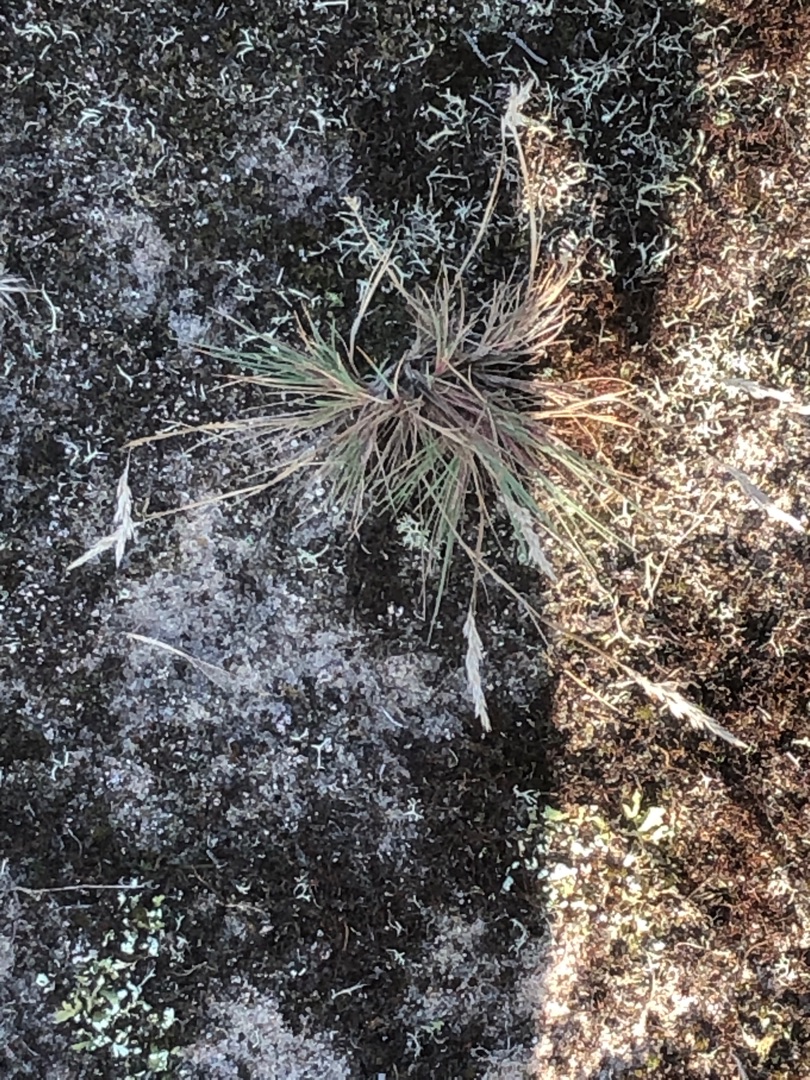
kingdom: Plantae
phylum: Tracheophyta
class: Liliopsida
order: Poales
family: Poaceae
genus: Corynephorus
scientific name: Corynephorus canescens
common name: Sandskæg
